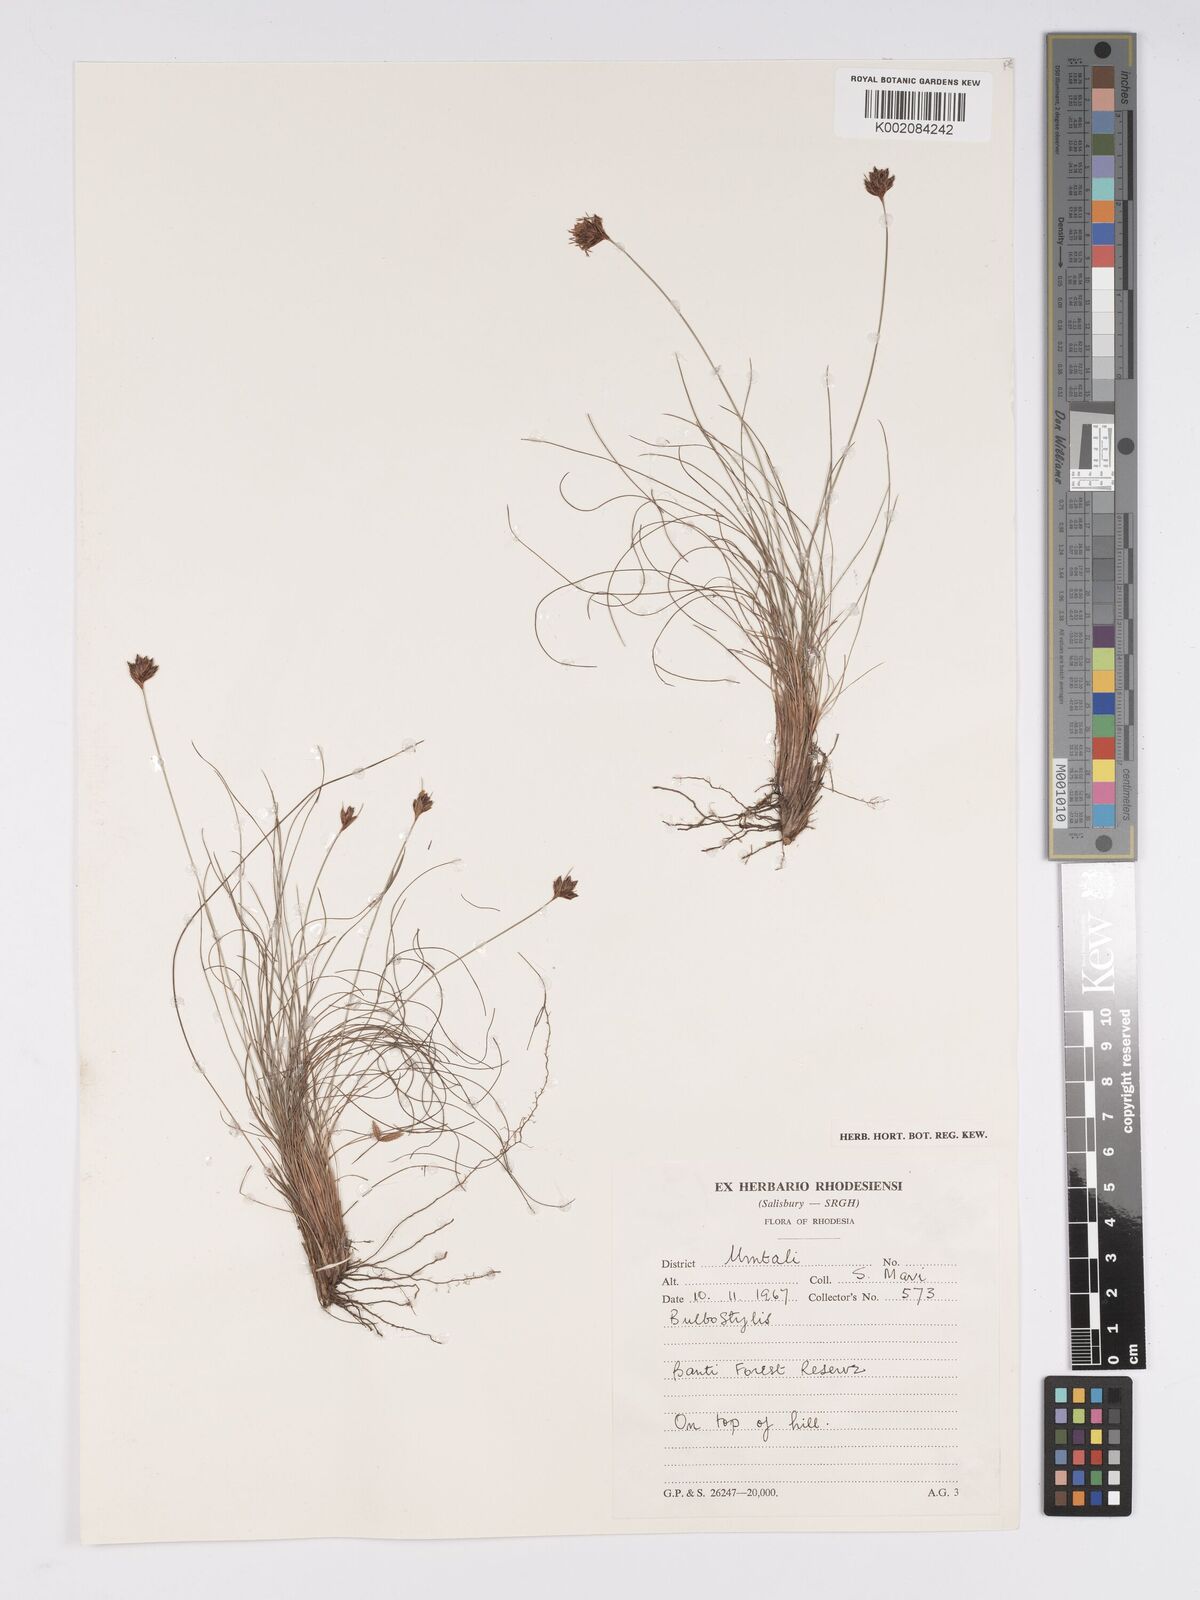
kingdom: Plantae
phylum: Tracheophyta
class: Liliopsida
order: Poales
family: Cyperaceae
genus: Bulbostylis
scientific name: Bulbostylis
